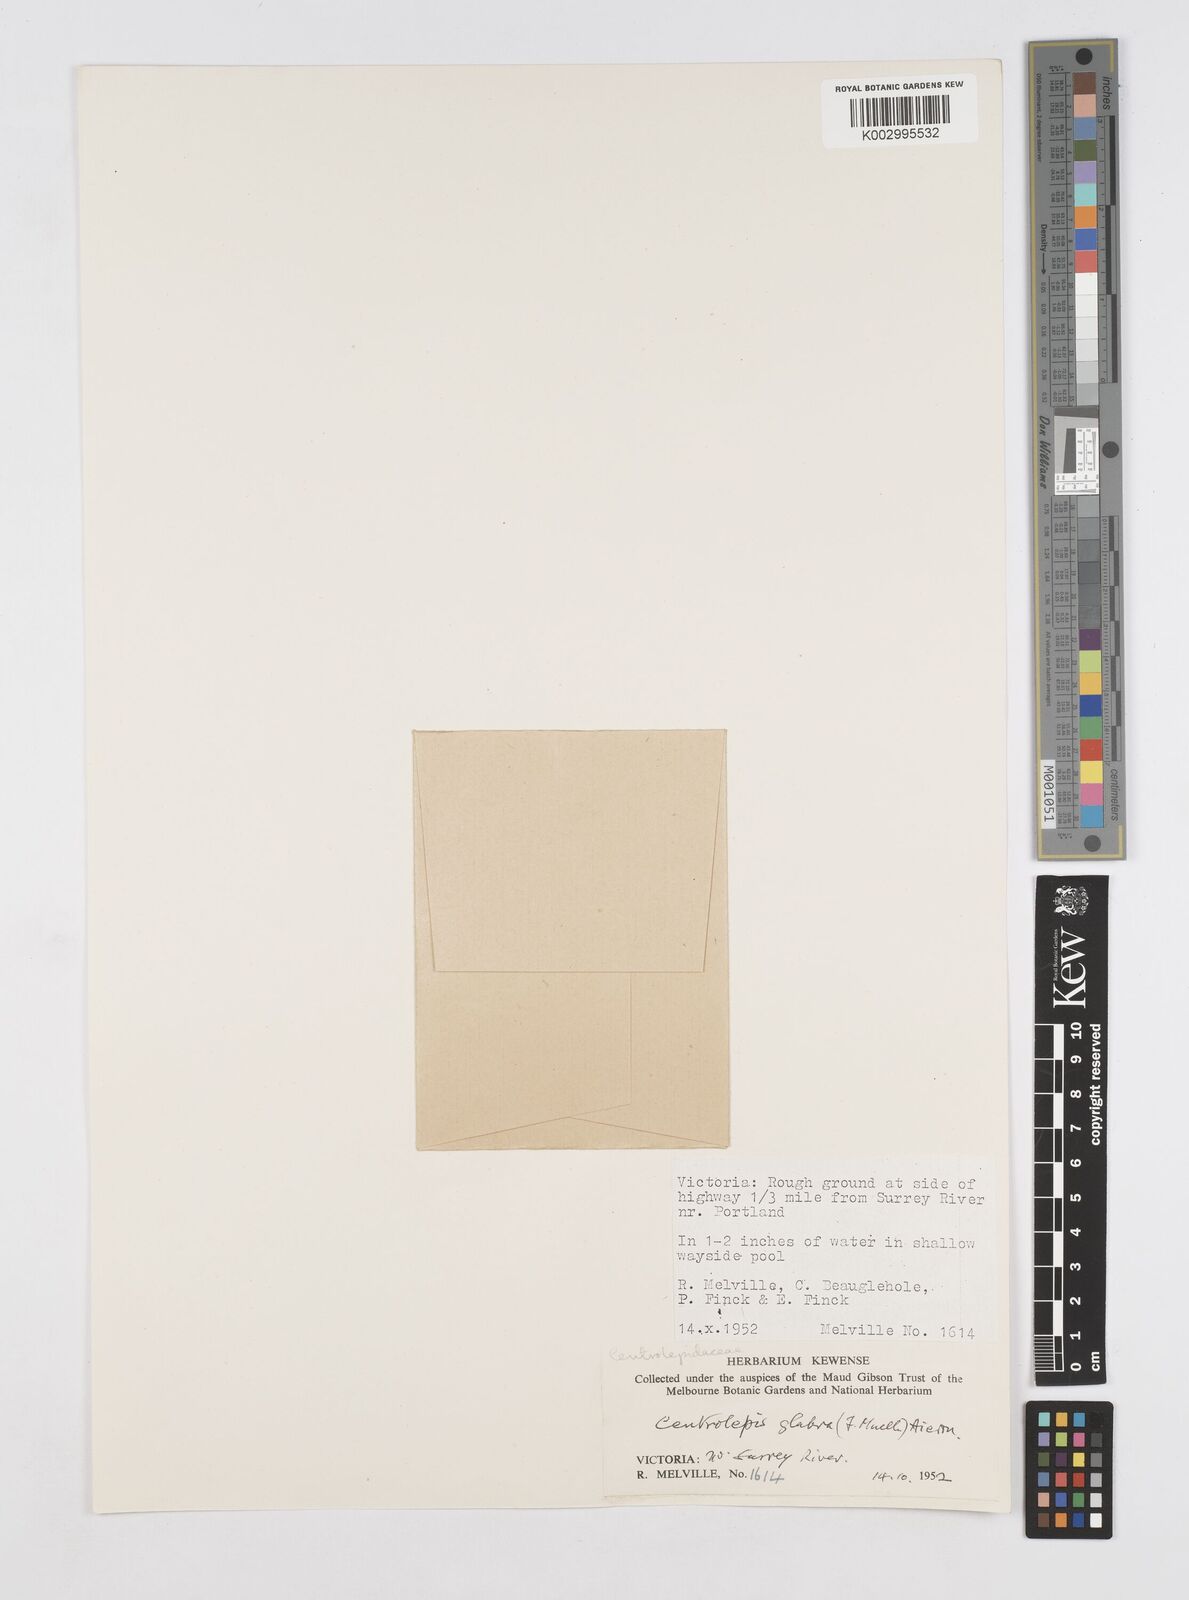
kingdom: Plantae
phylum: Tracheophyta
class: Liliopsida
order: Poales
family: Restionaceae
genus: Centrolepis
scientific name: Centrolepis glabra
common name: Smooth centrolepis
